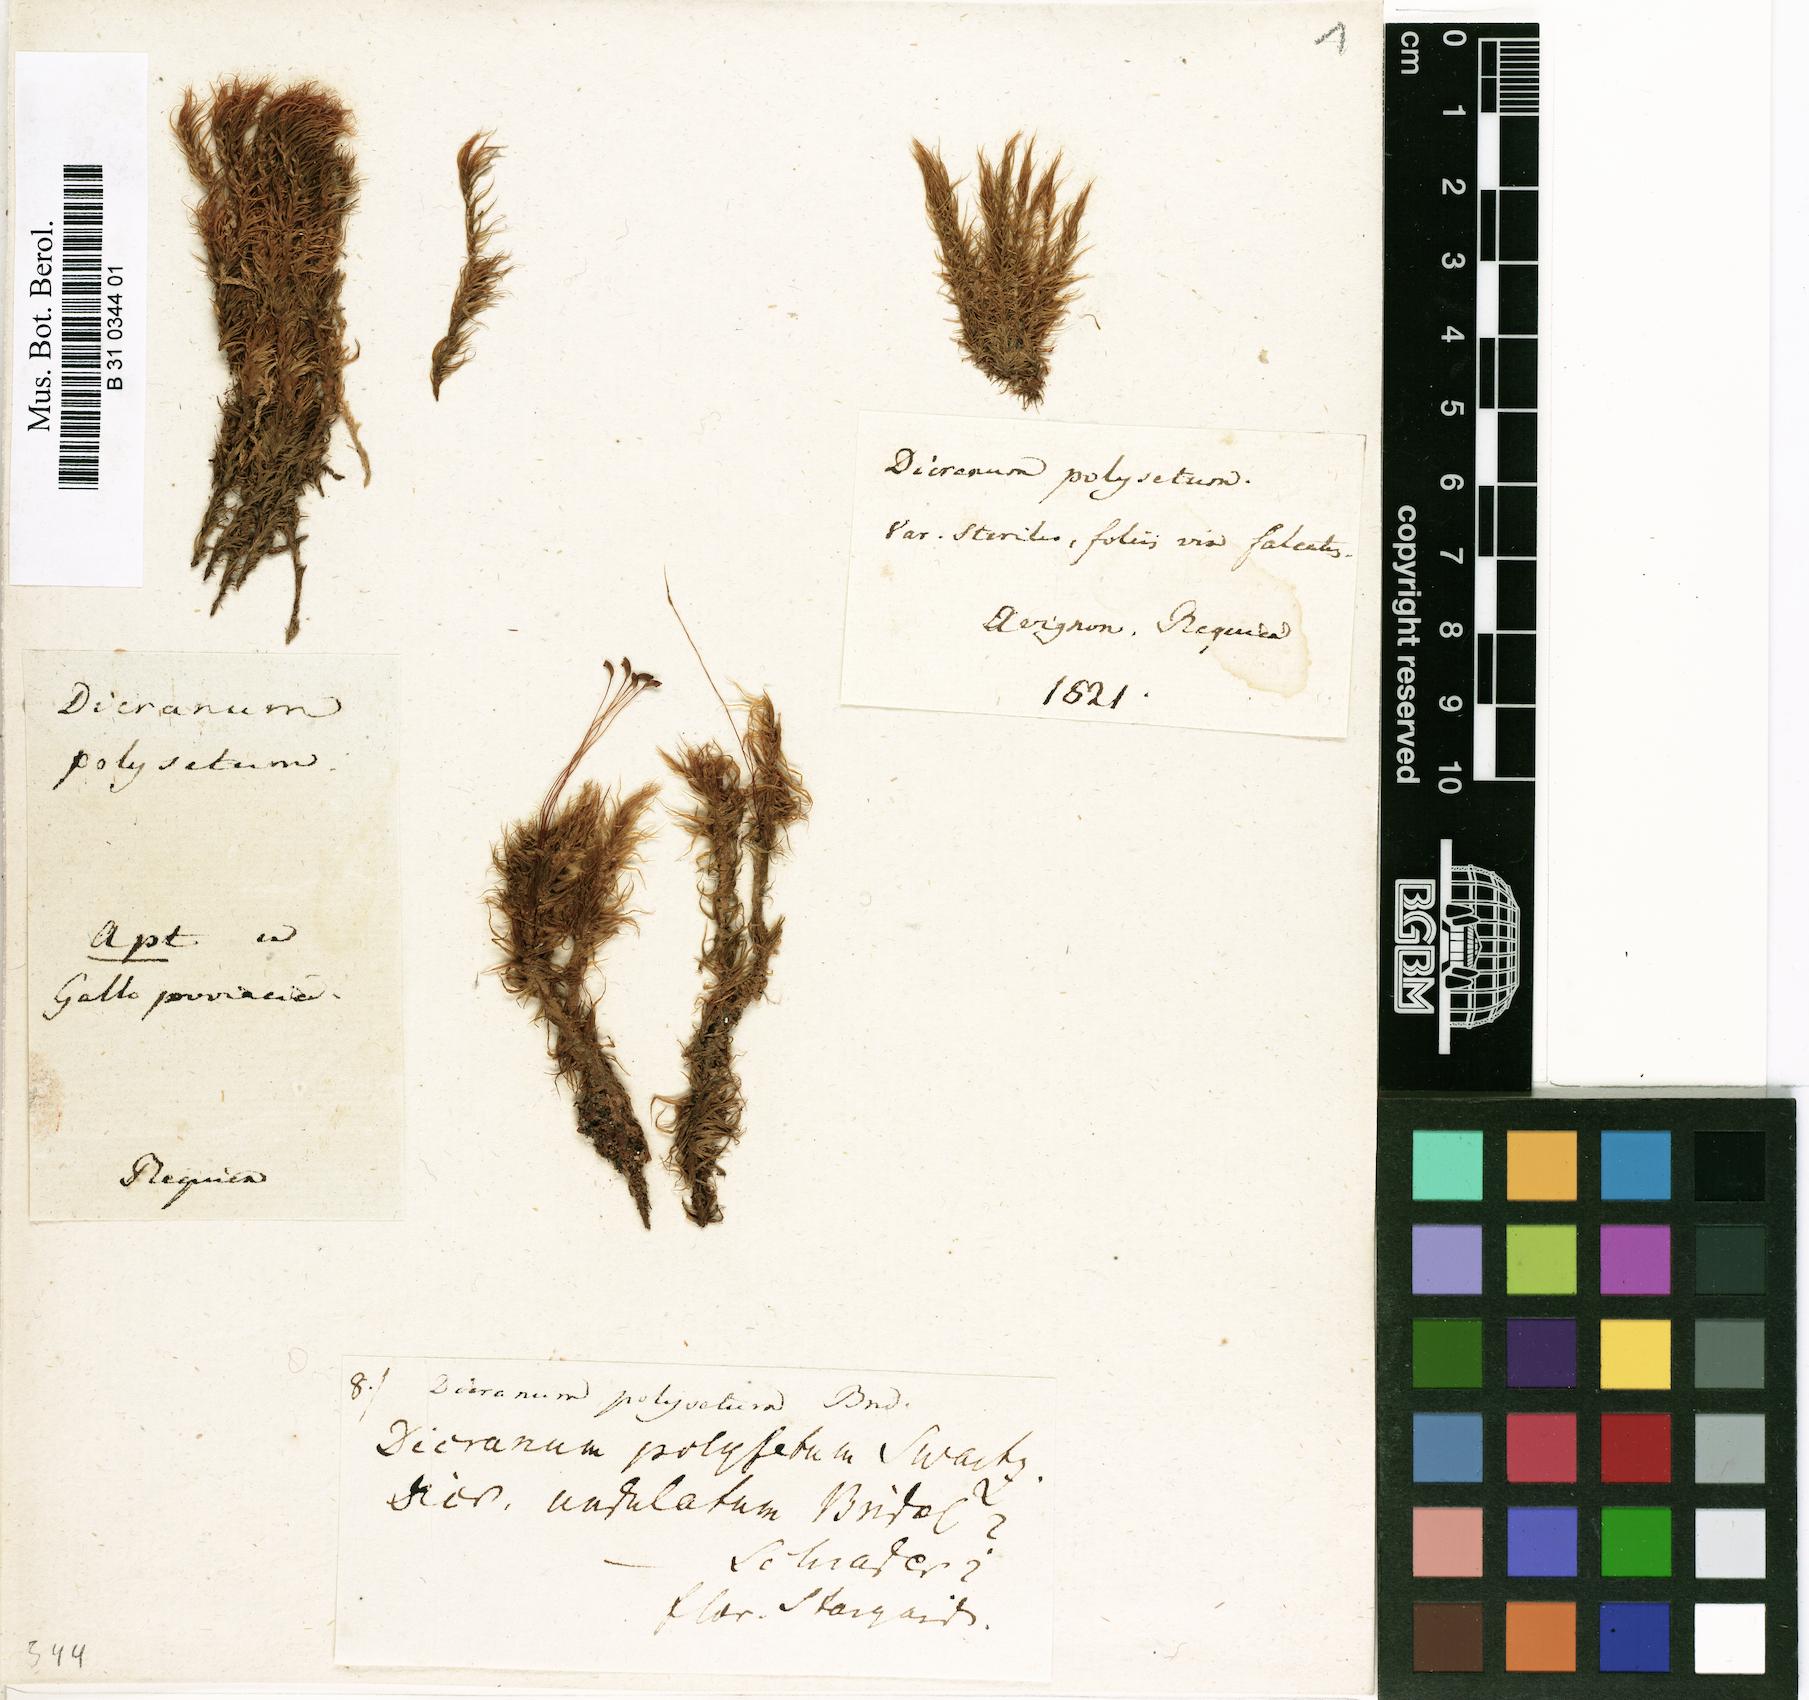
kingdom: Plantae
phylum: Bryophyta
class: Bryopsida
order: Dicranales
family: Dicranaceae
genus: Dicranum
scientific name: Dicranum polysetum
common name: Rugose fork-moss
